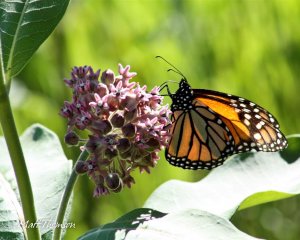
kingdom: Animalia
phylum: Arthropoda
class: Insecta
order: Lepidoptera
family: Nymphalidae
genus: Danaus
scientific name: Danaus plexippus
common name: Monarch
